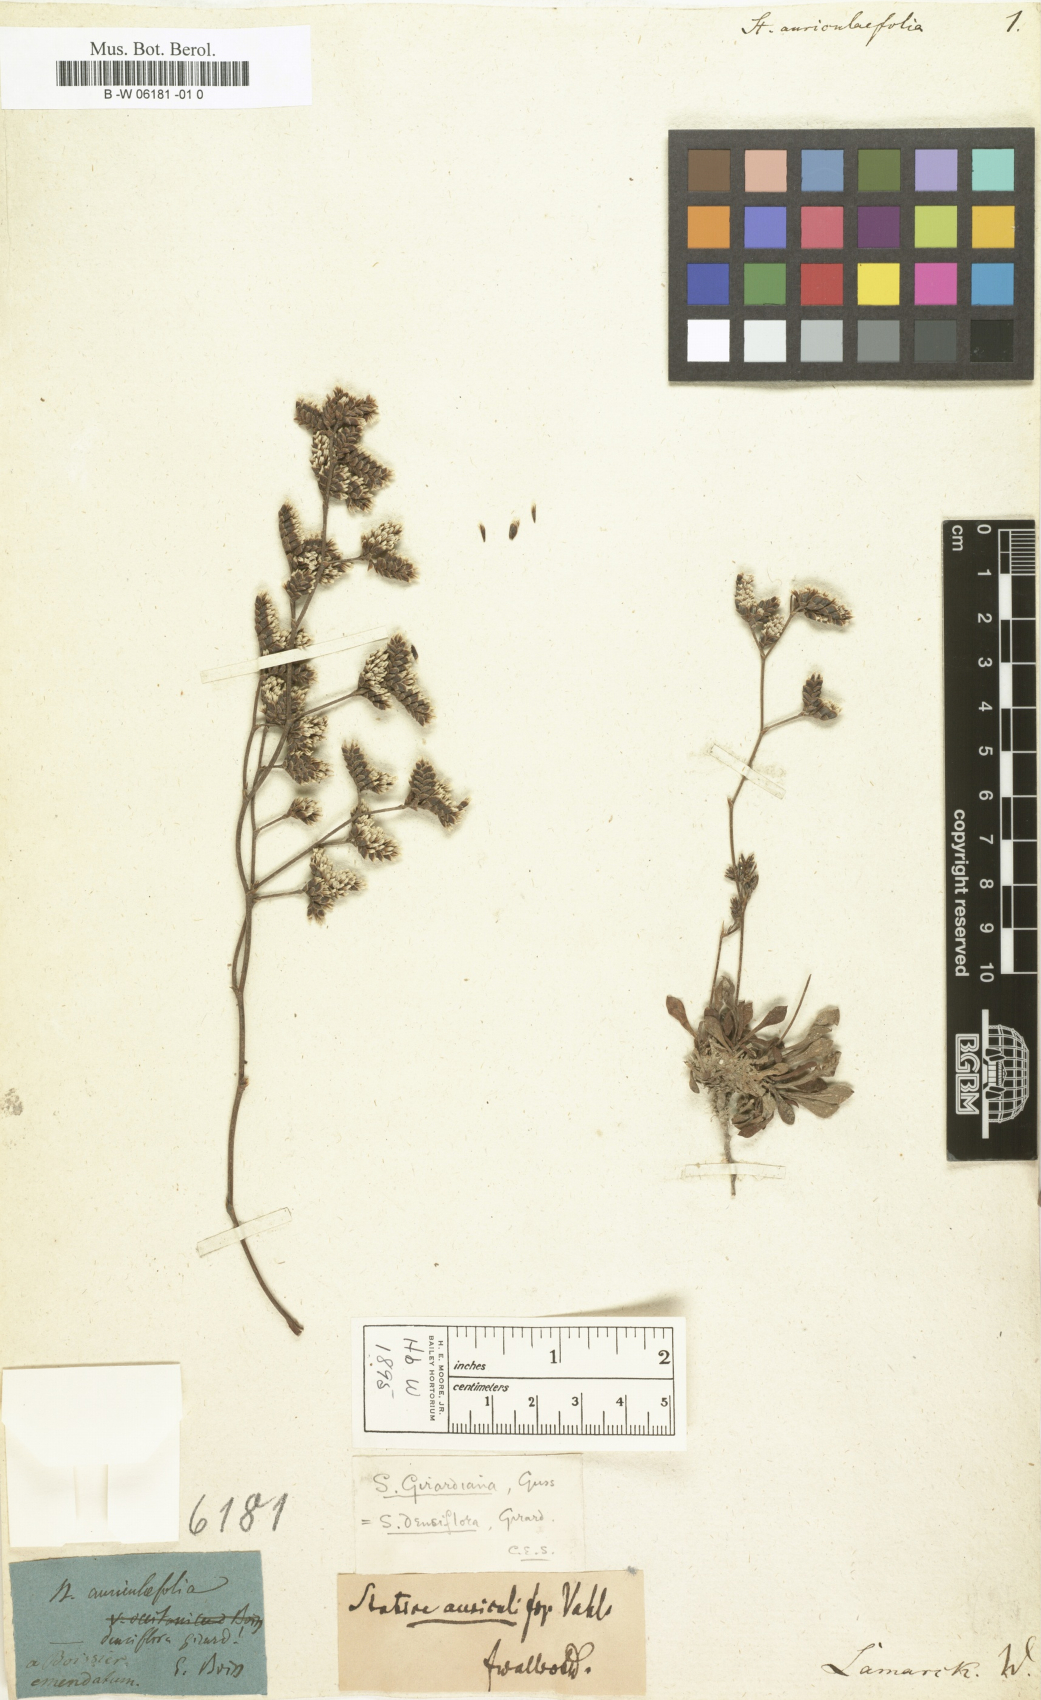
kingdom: Plantae
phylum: Tracheophyta
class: Magnoliopsida
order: Caryophyllales
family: Plumbaginaceae
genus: Limonium
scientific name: Limonium binervosum
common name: Rock sea-lavender
